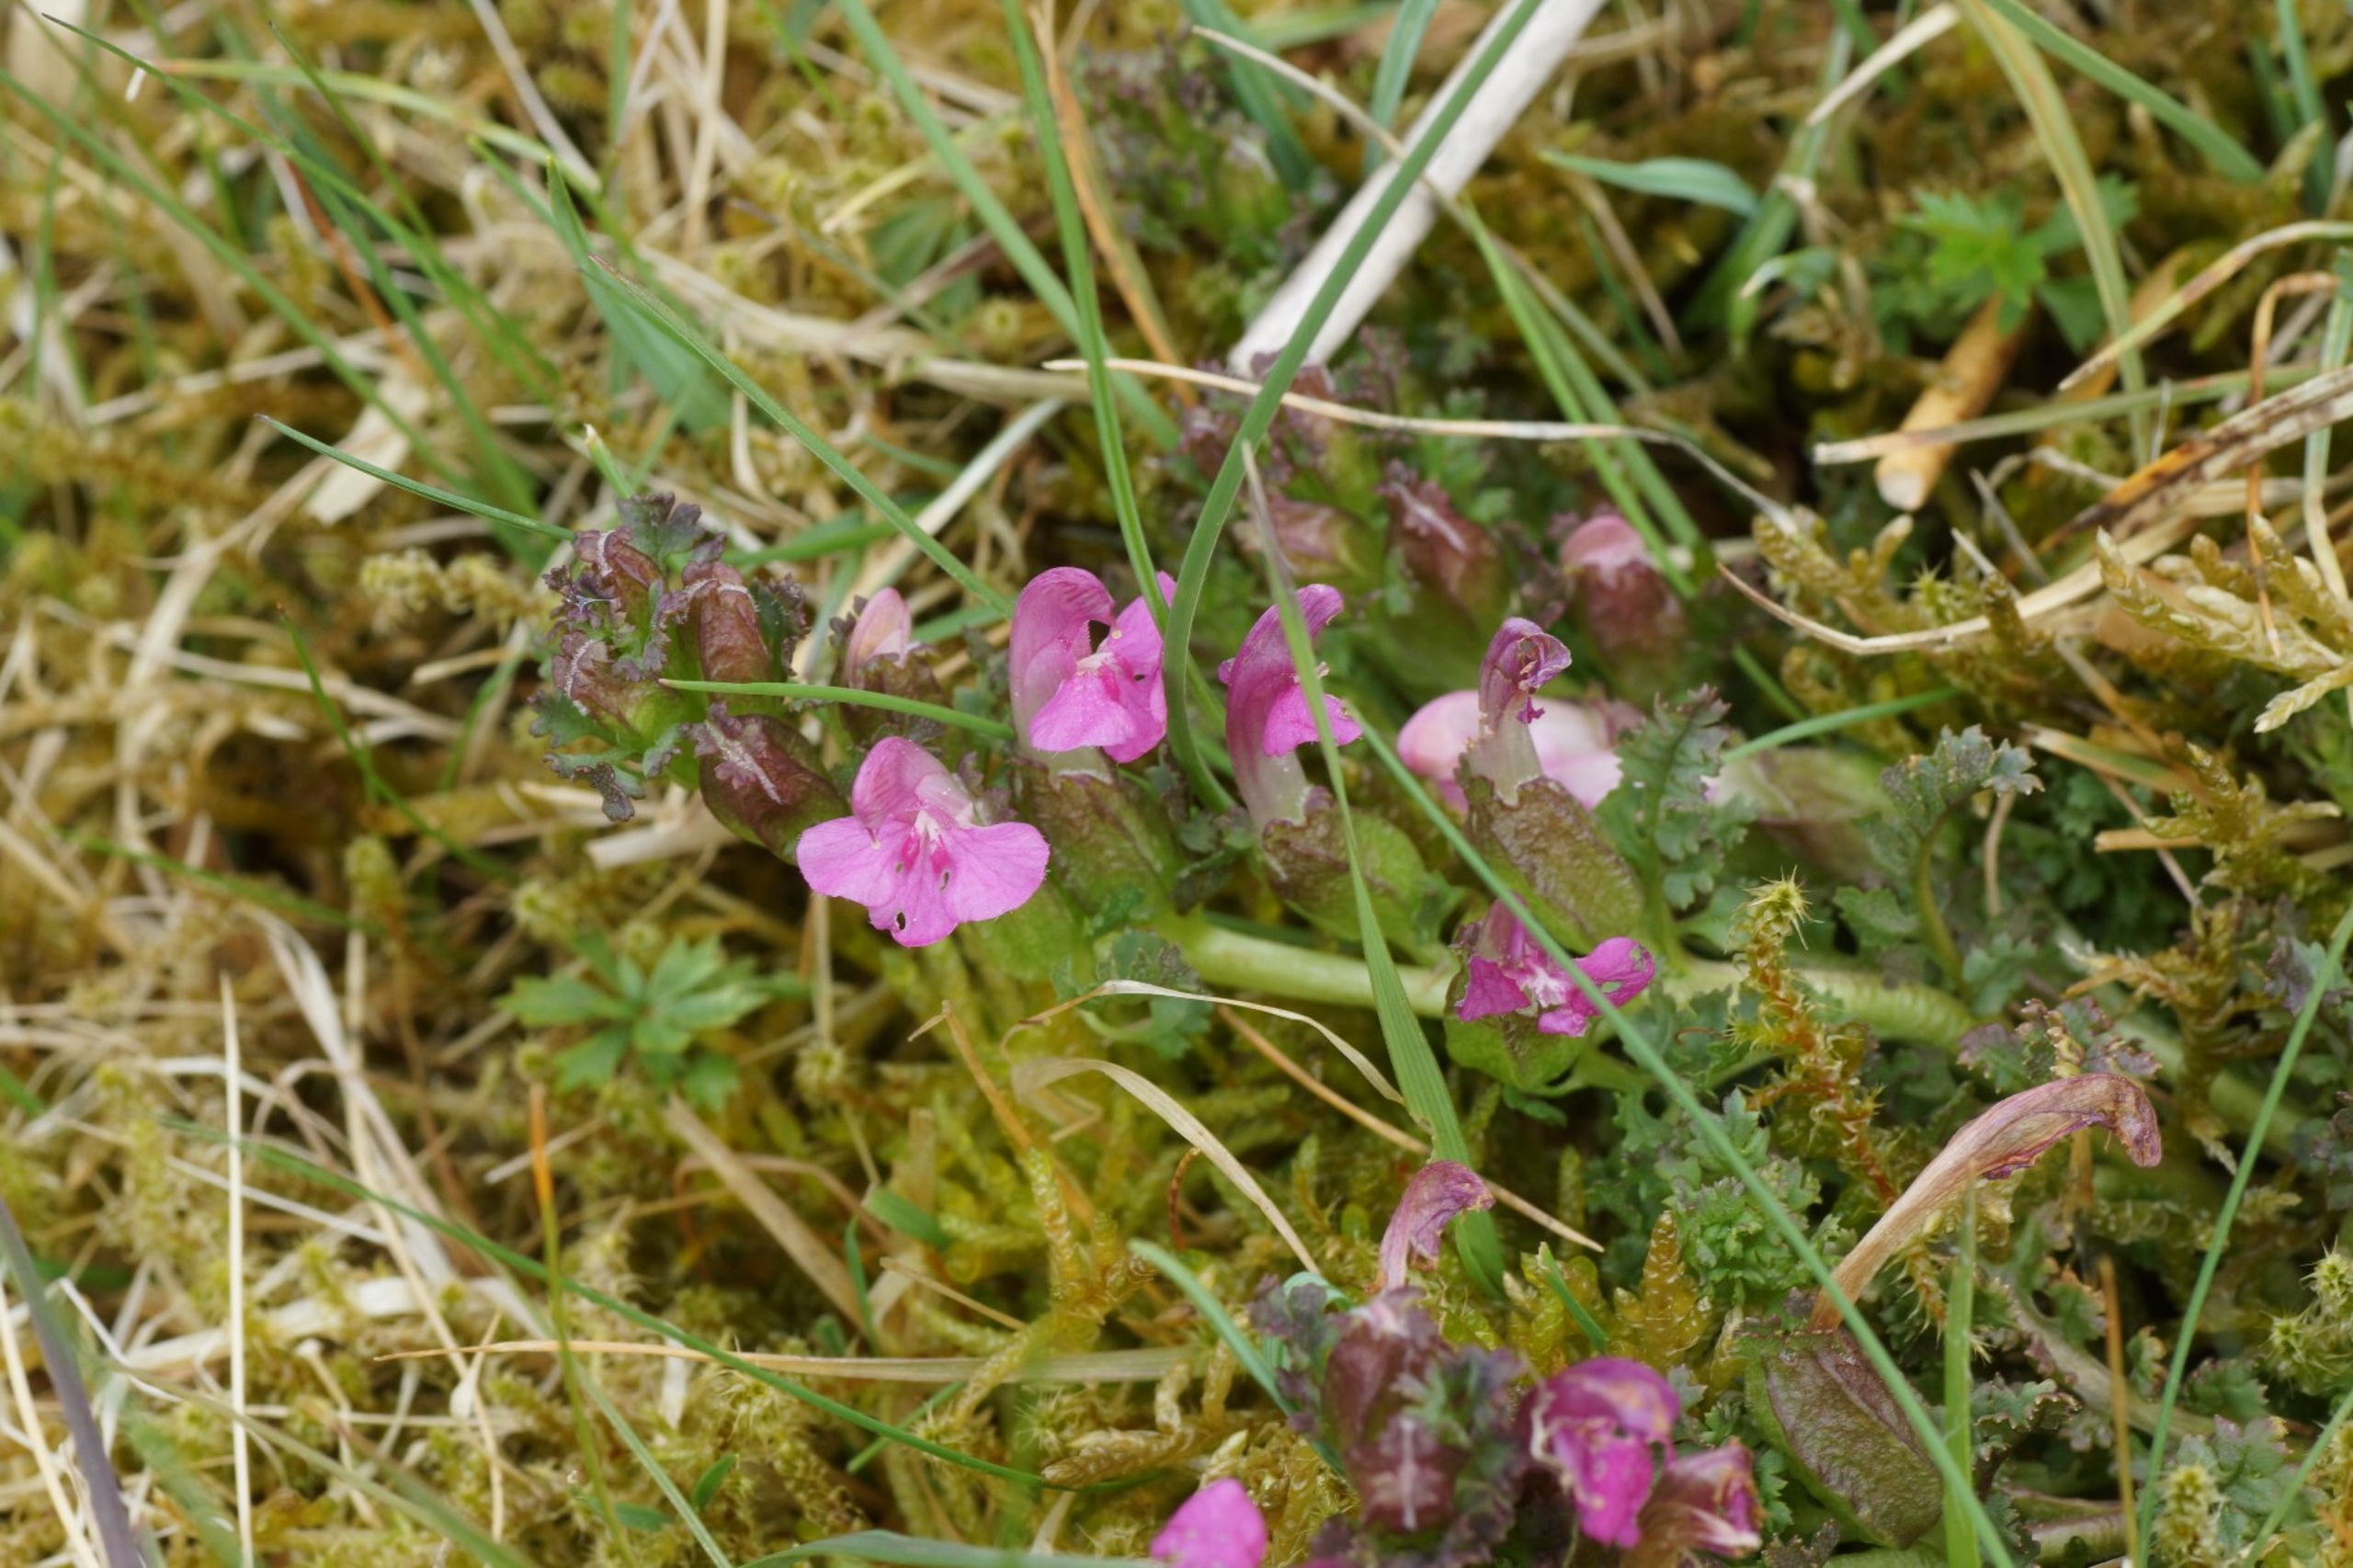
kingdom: Plantae
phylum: Tracheophyta
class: Magnoliopsida
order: Lamiales
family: Orobanchaceae
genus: Pedicularis
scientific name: Pedicularis sylvatica
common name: Mose-troldurt
